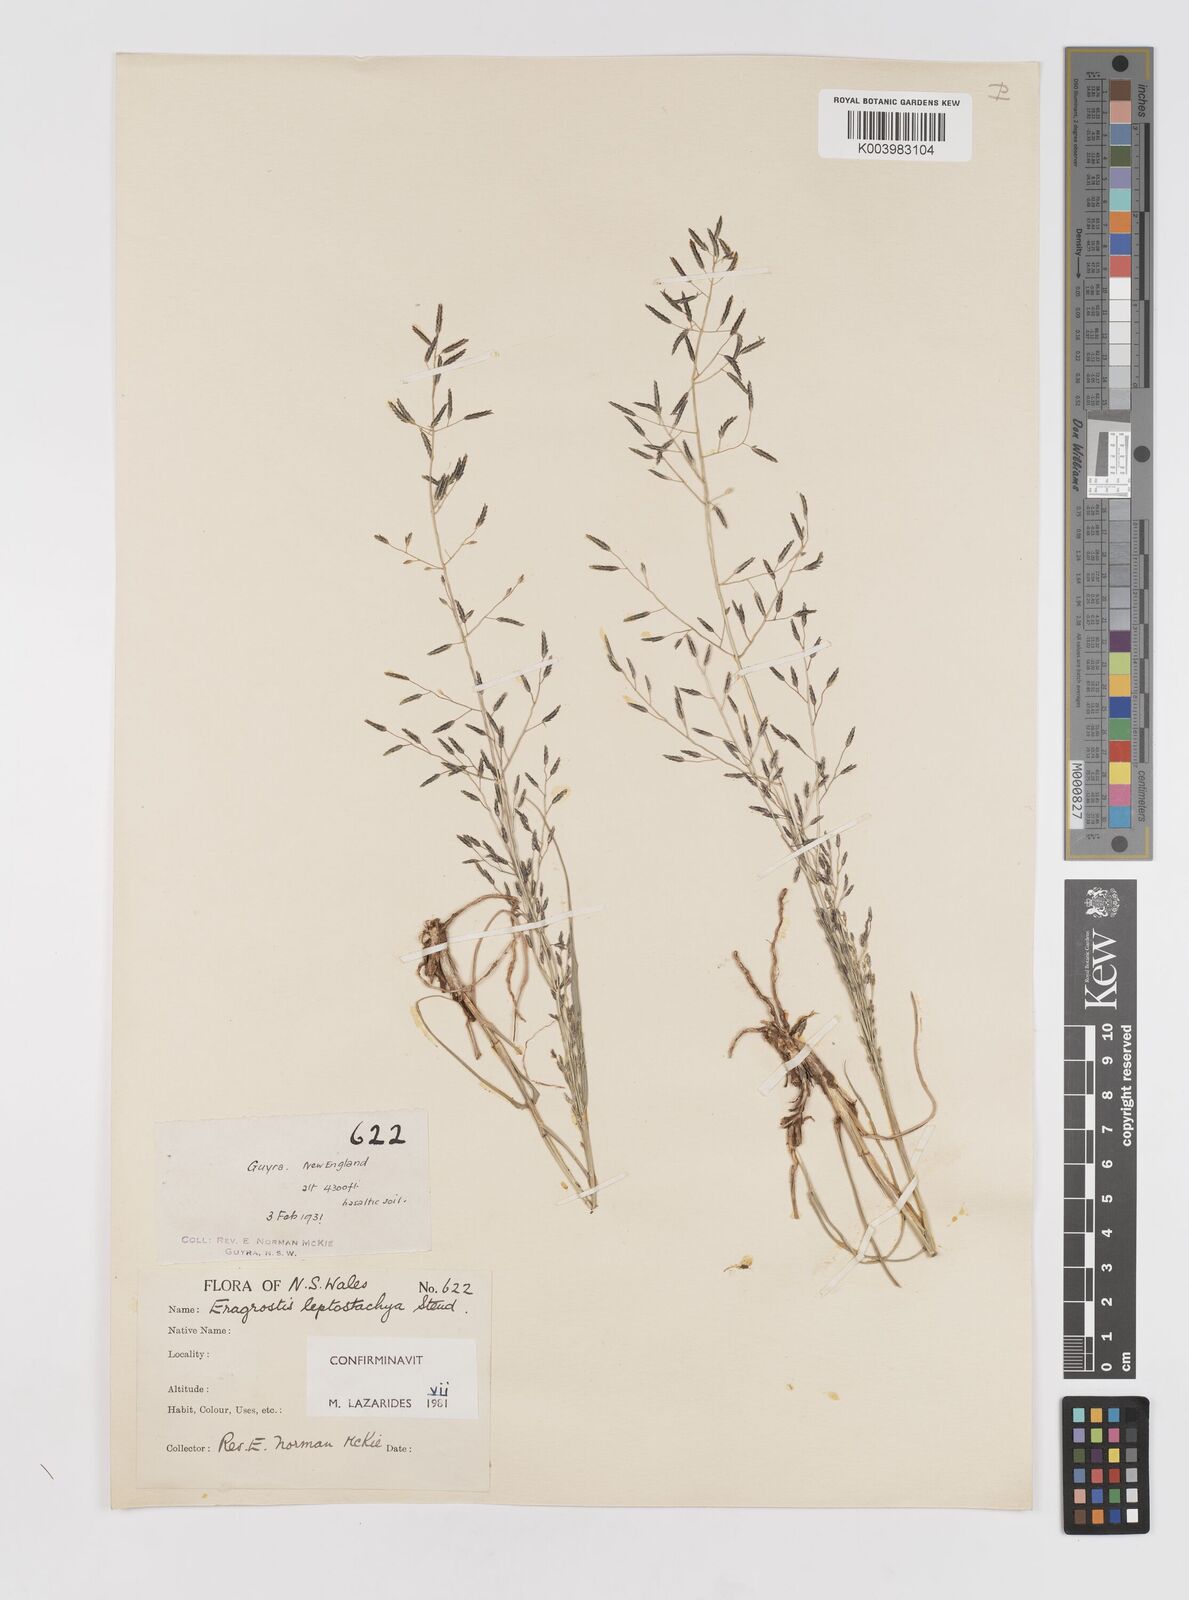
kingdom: Plantae
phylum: Tracheophyta
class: Liliopsida
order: Poales
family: Poaceae
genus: Eragrostis
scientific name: Eragrostis leptostachya
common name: Australian lovegrass
